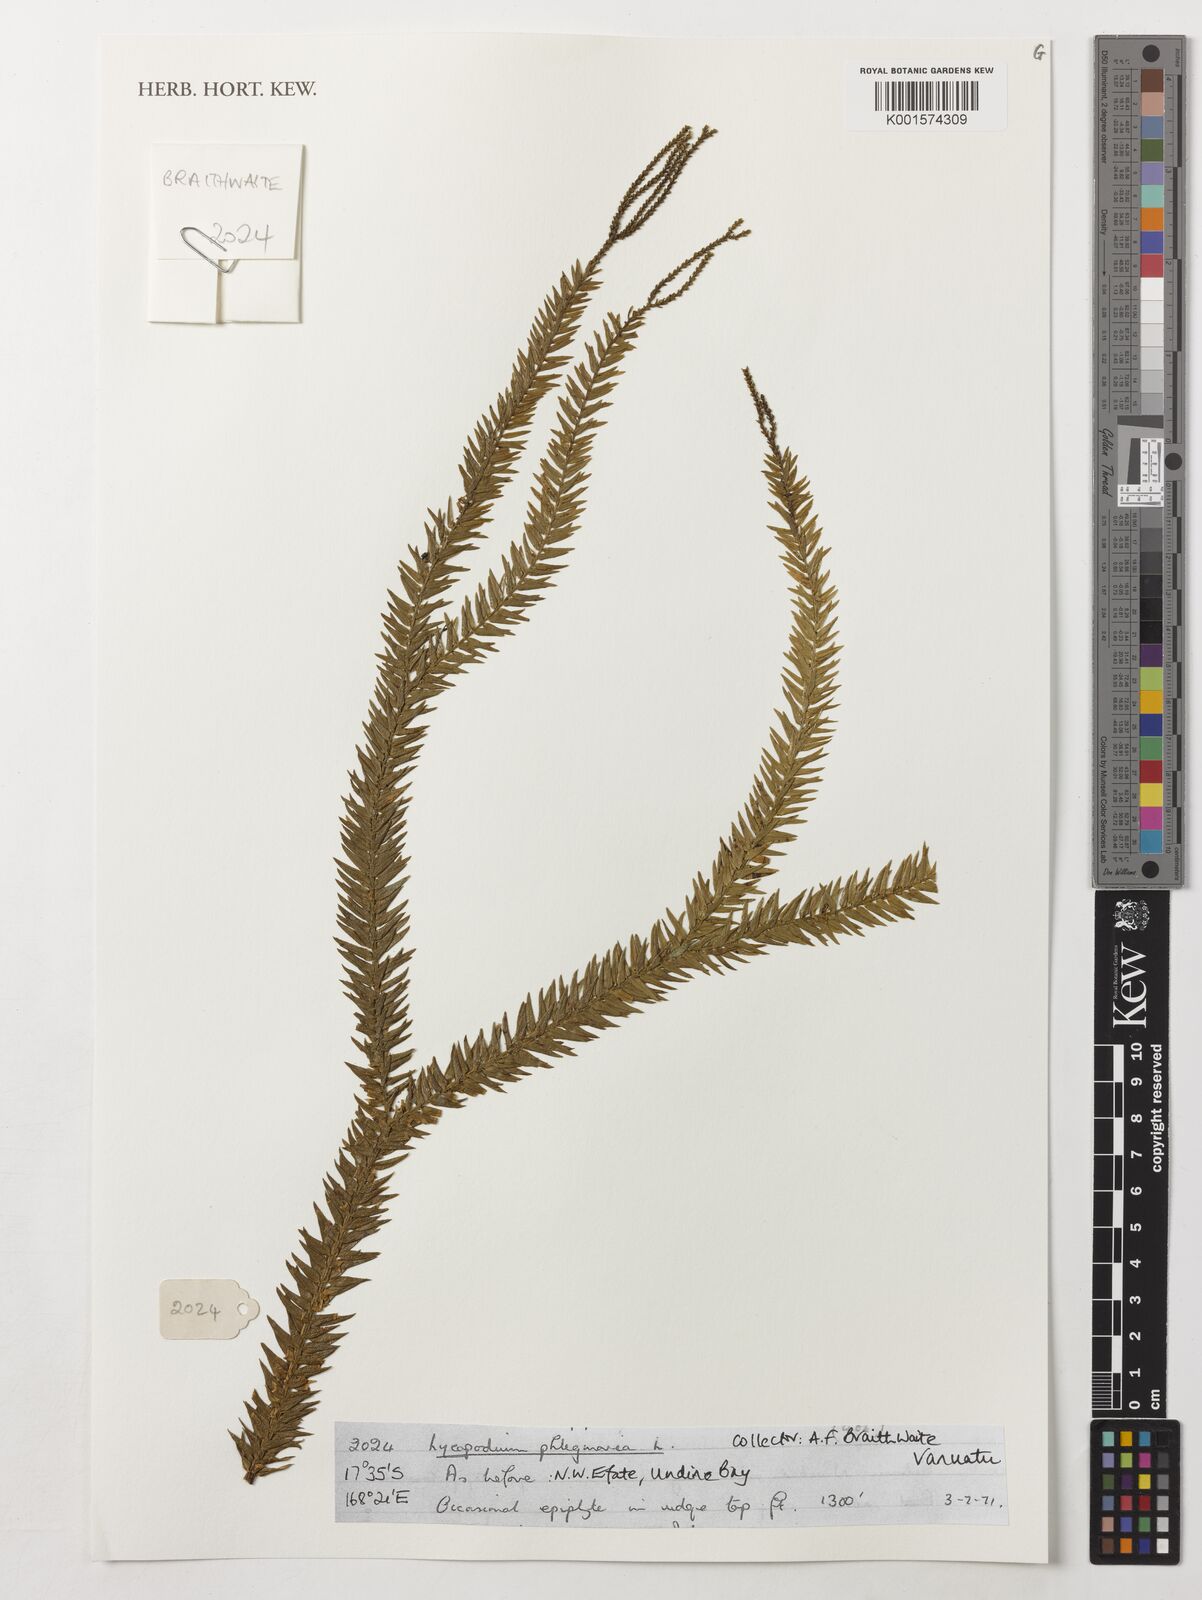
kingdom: Plantae
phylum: Tracheophyta
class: Lycopodiopsida
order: Lycopodiales
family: Lycopodiaceae
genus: Phlegmariurus
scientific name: Phlegmariurus phlegmaria
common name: Coarse tassel-fern
